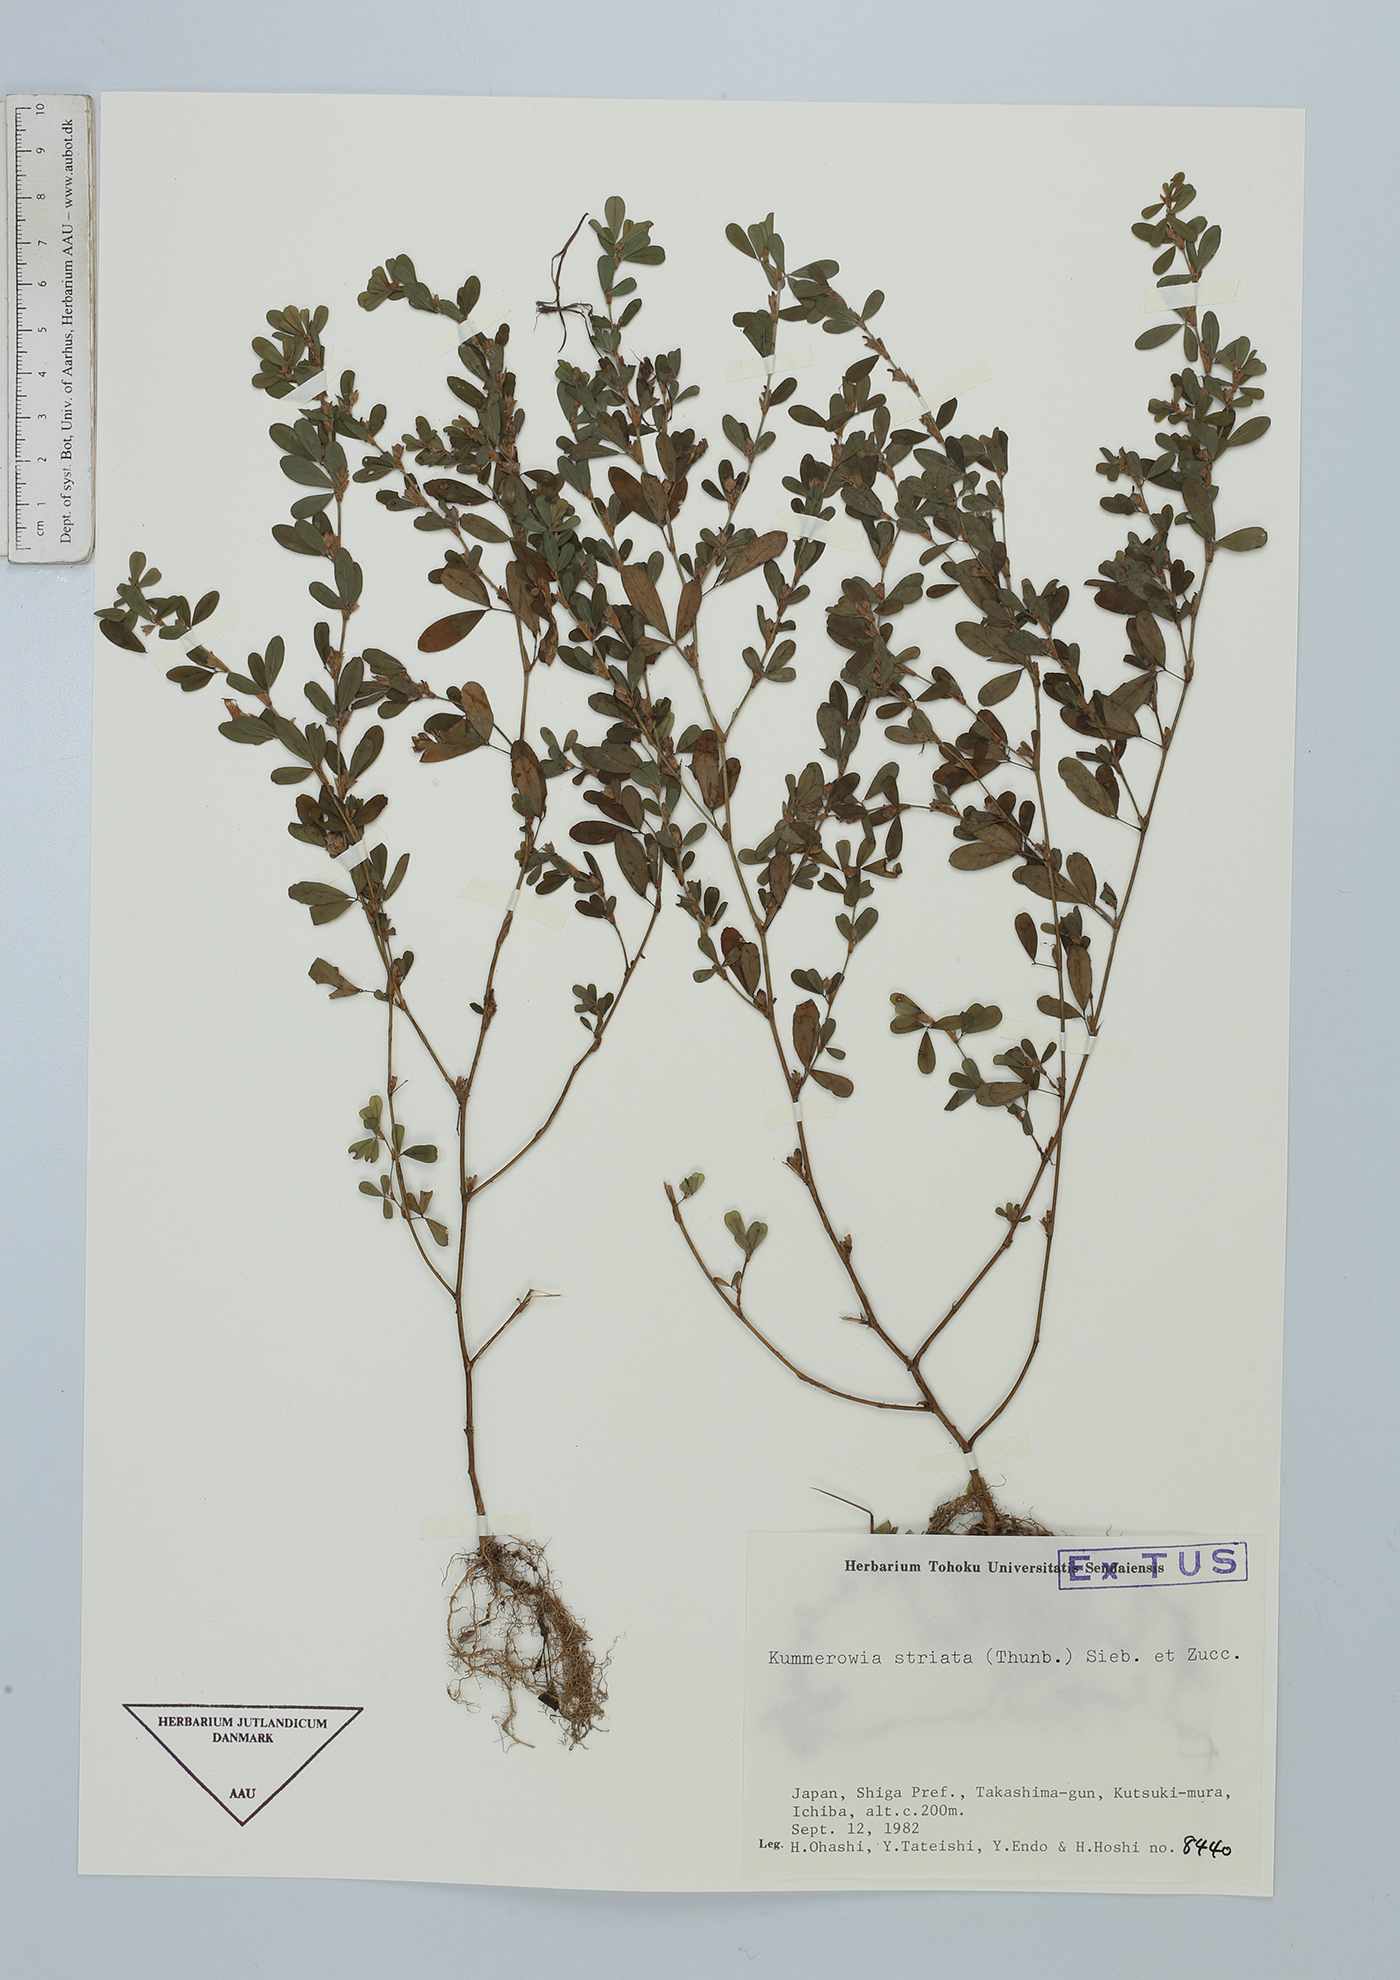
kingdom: Plantae
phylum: Tracheophyta
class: Magnoliopsida
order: Fabales
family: Fabaceae
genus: Kummerowia
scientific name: Kummerowia striata
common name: Japanese clover
